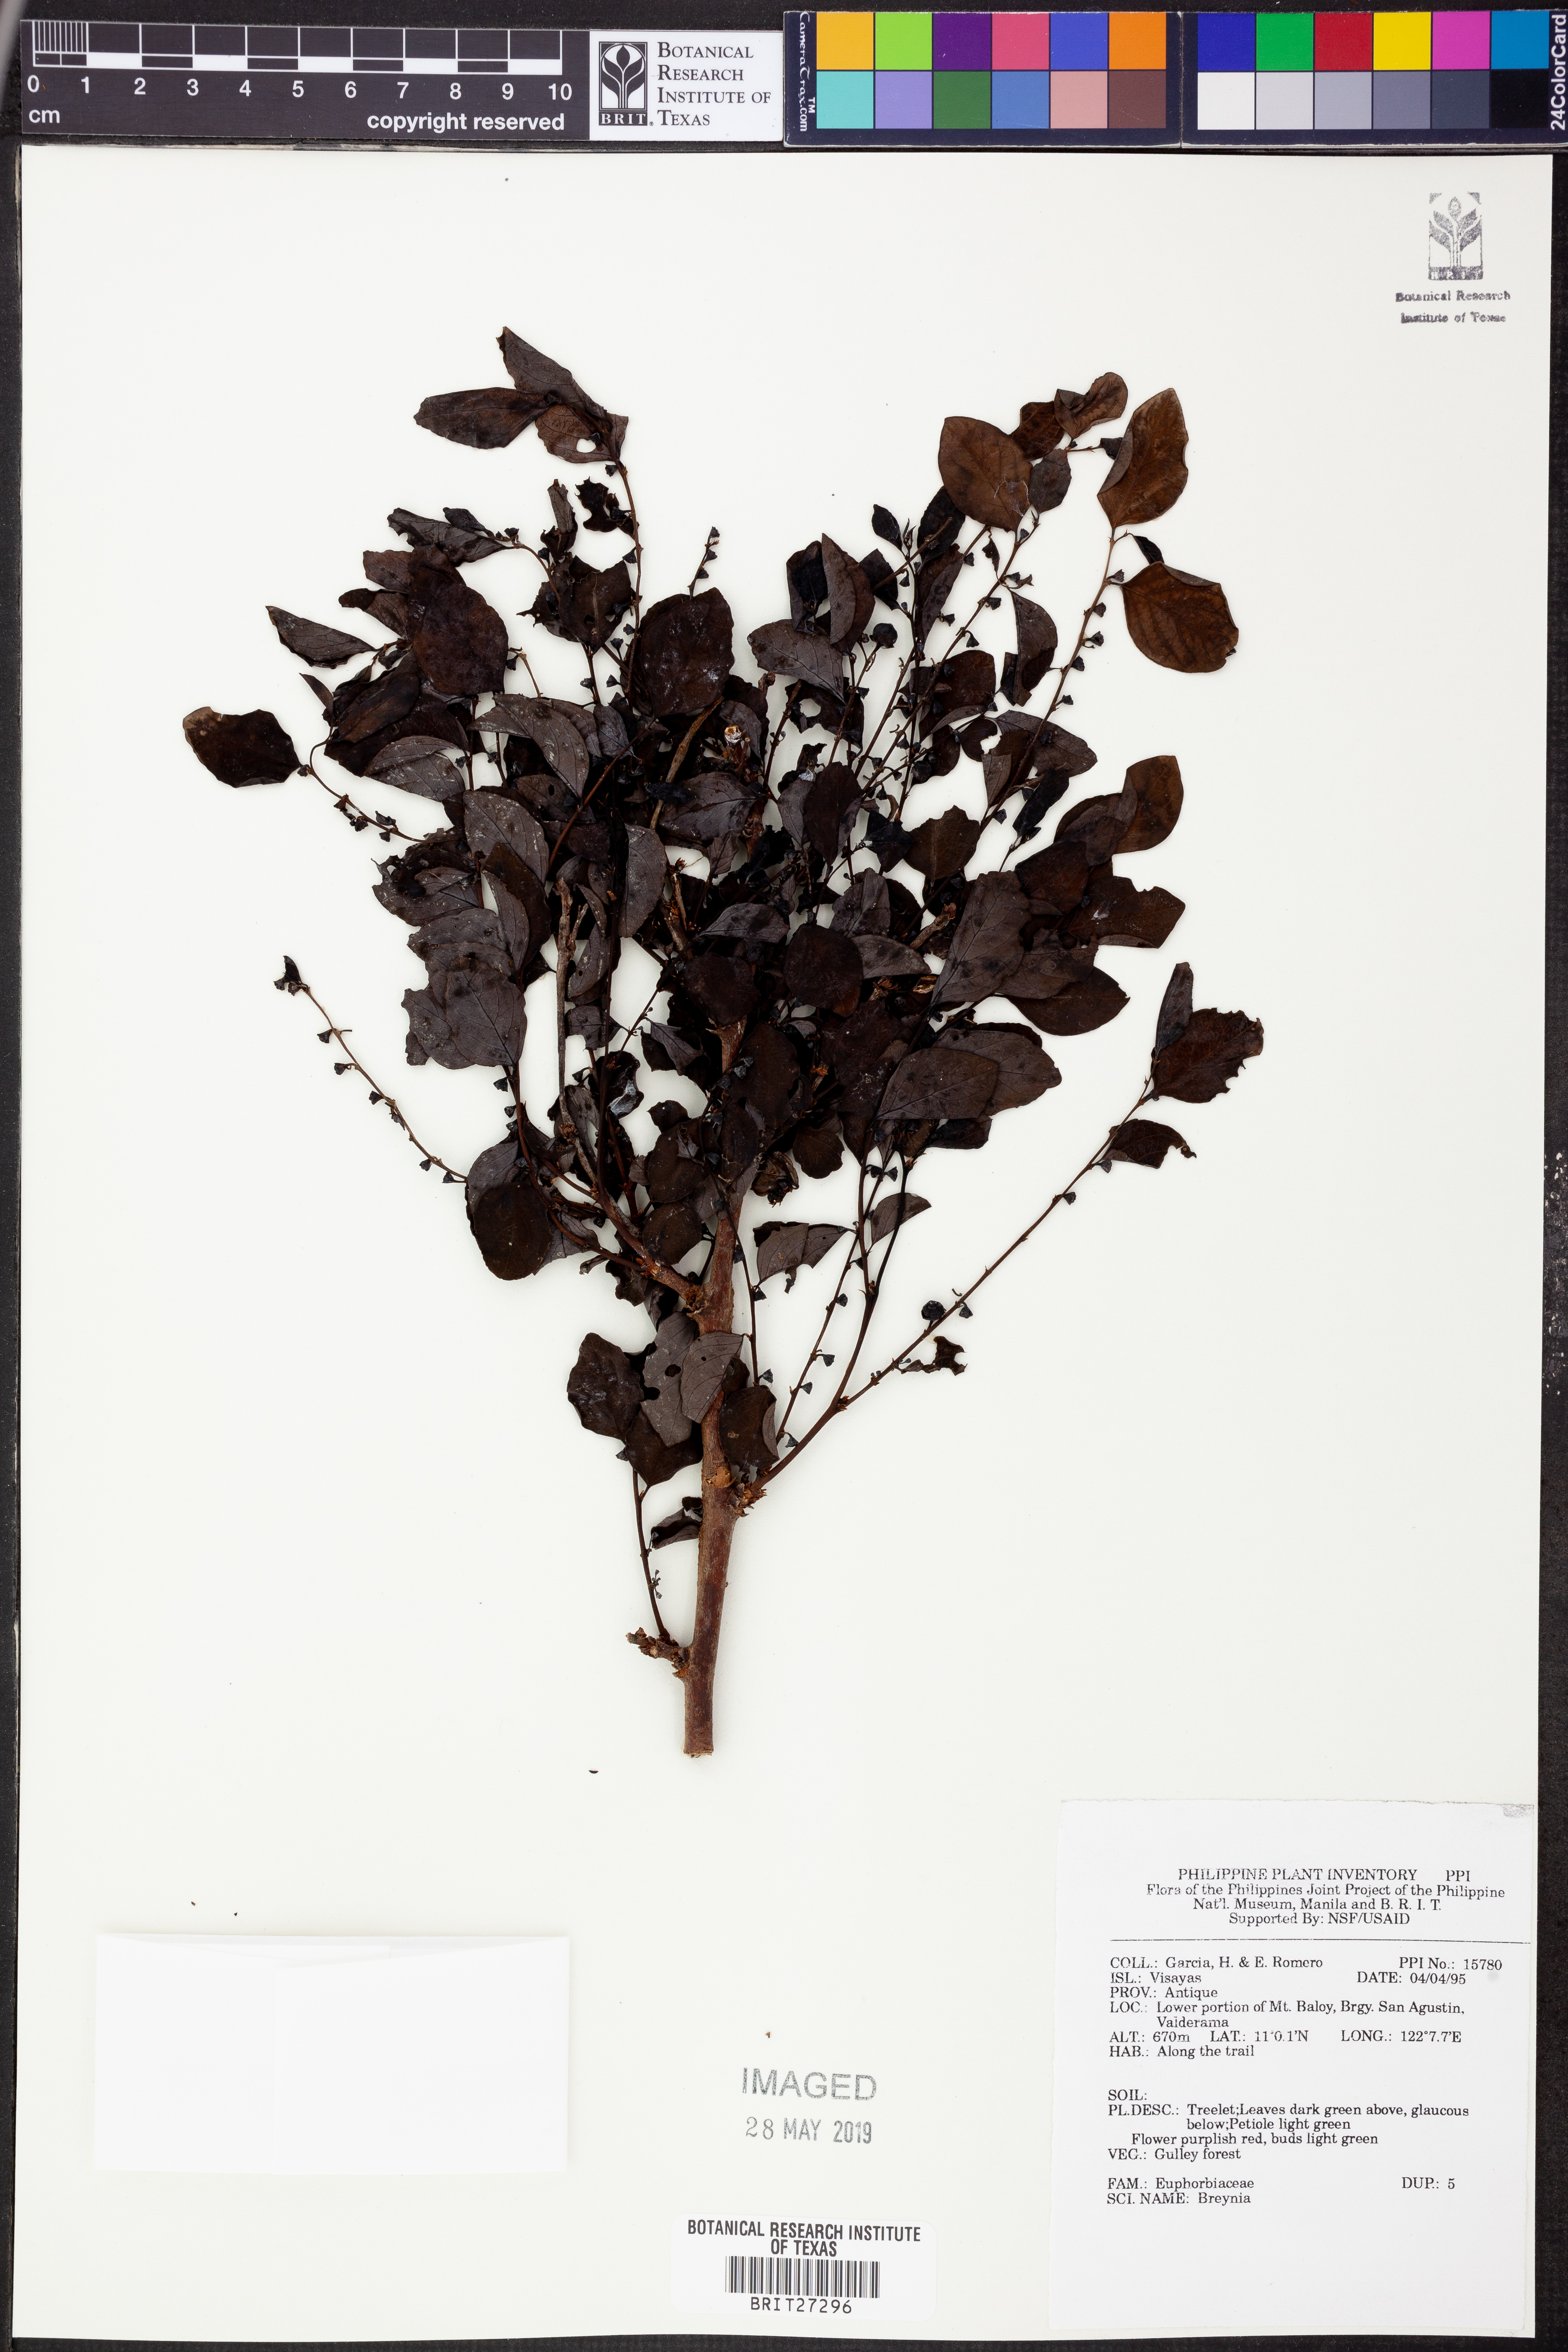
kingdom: Plantae
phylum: Tracheophyta
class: Magnoliopsida
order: Malpighiales
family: Phyllanthaceae
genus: Breynia
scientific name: Breynia
